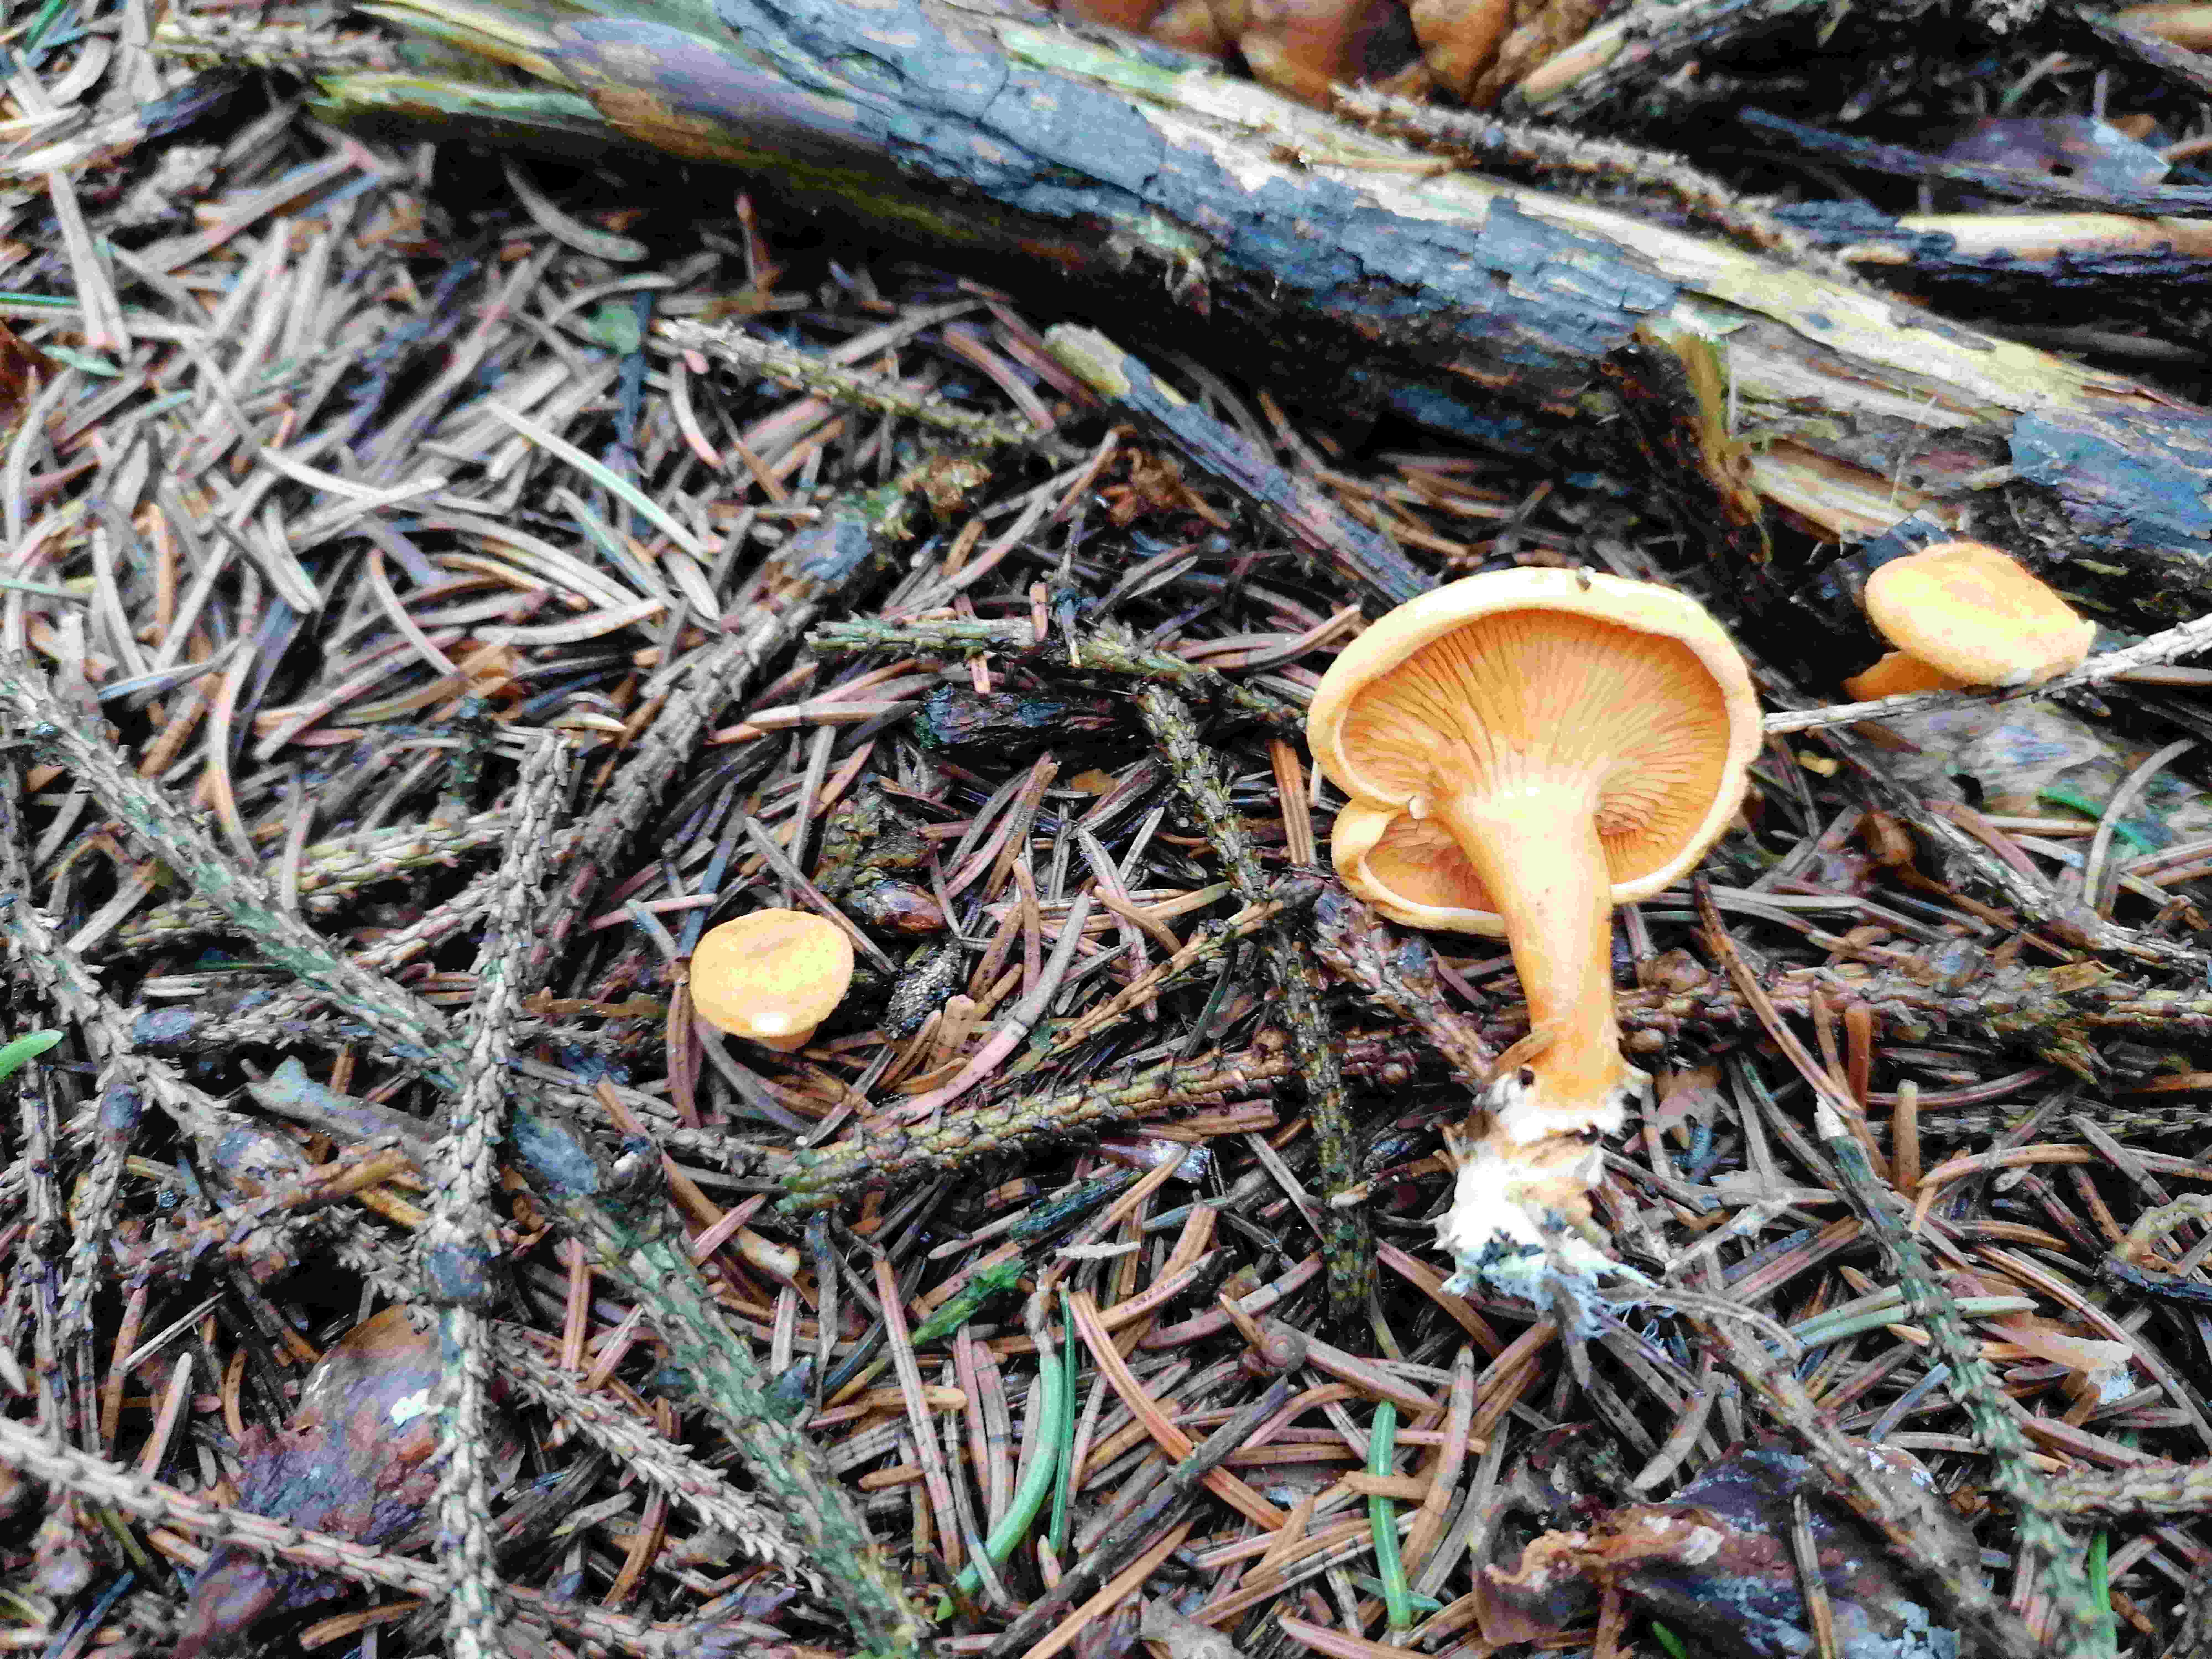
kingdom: Fungi
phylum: Basidiomycota
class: Agaricomycetes
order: Boletales
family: Hygrophoropsidaceae
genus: Hygrophoropsis
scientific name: Hygrophoropsis aurantiaca
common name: almindelig orangekantarel
